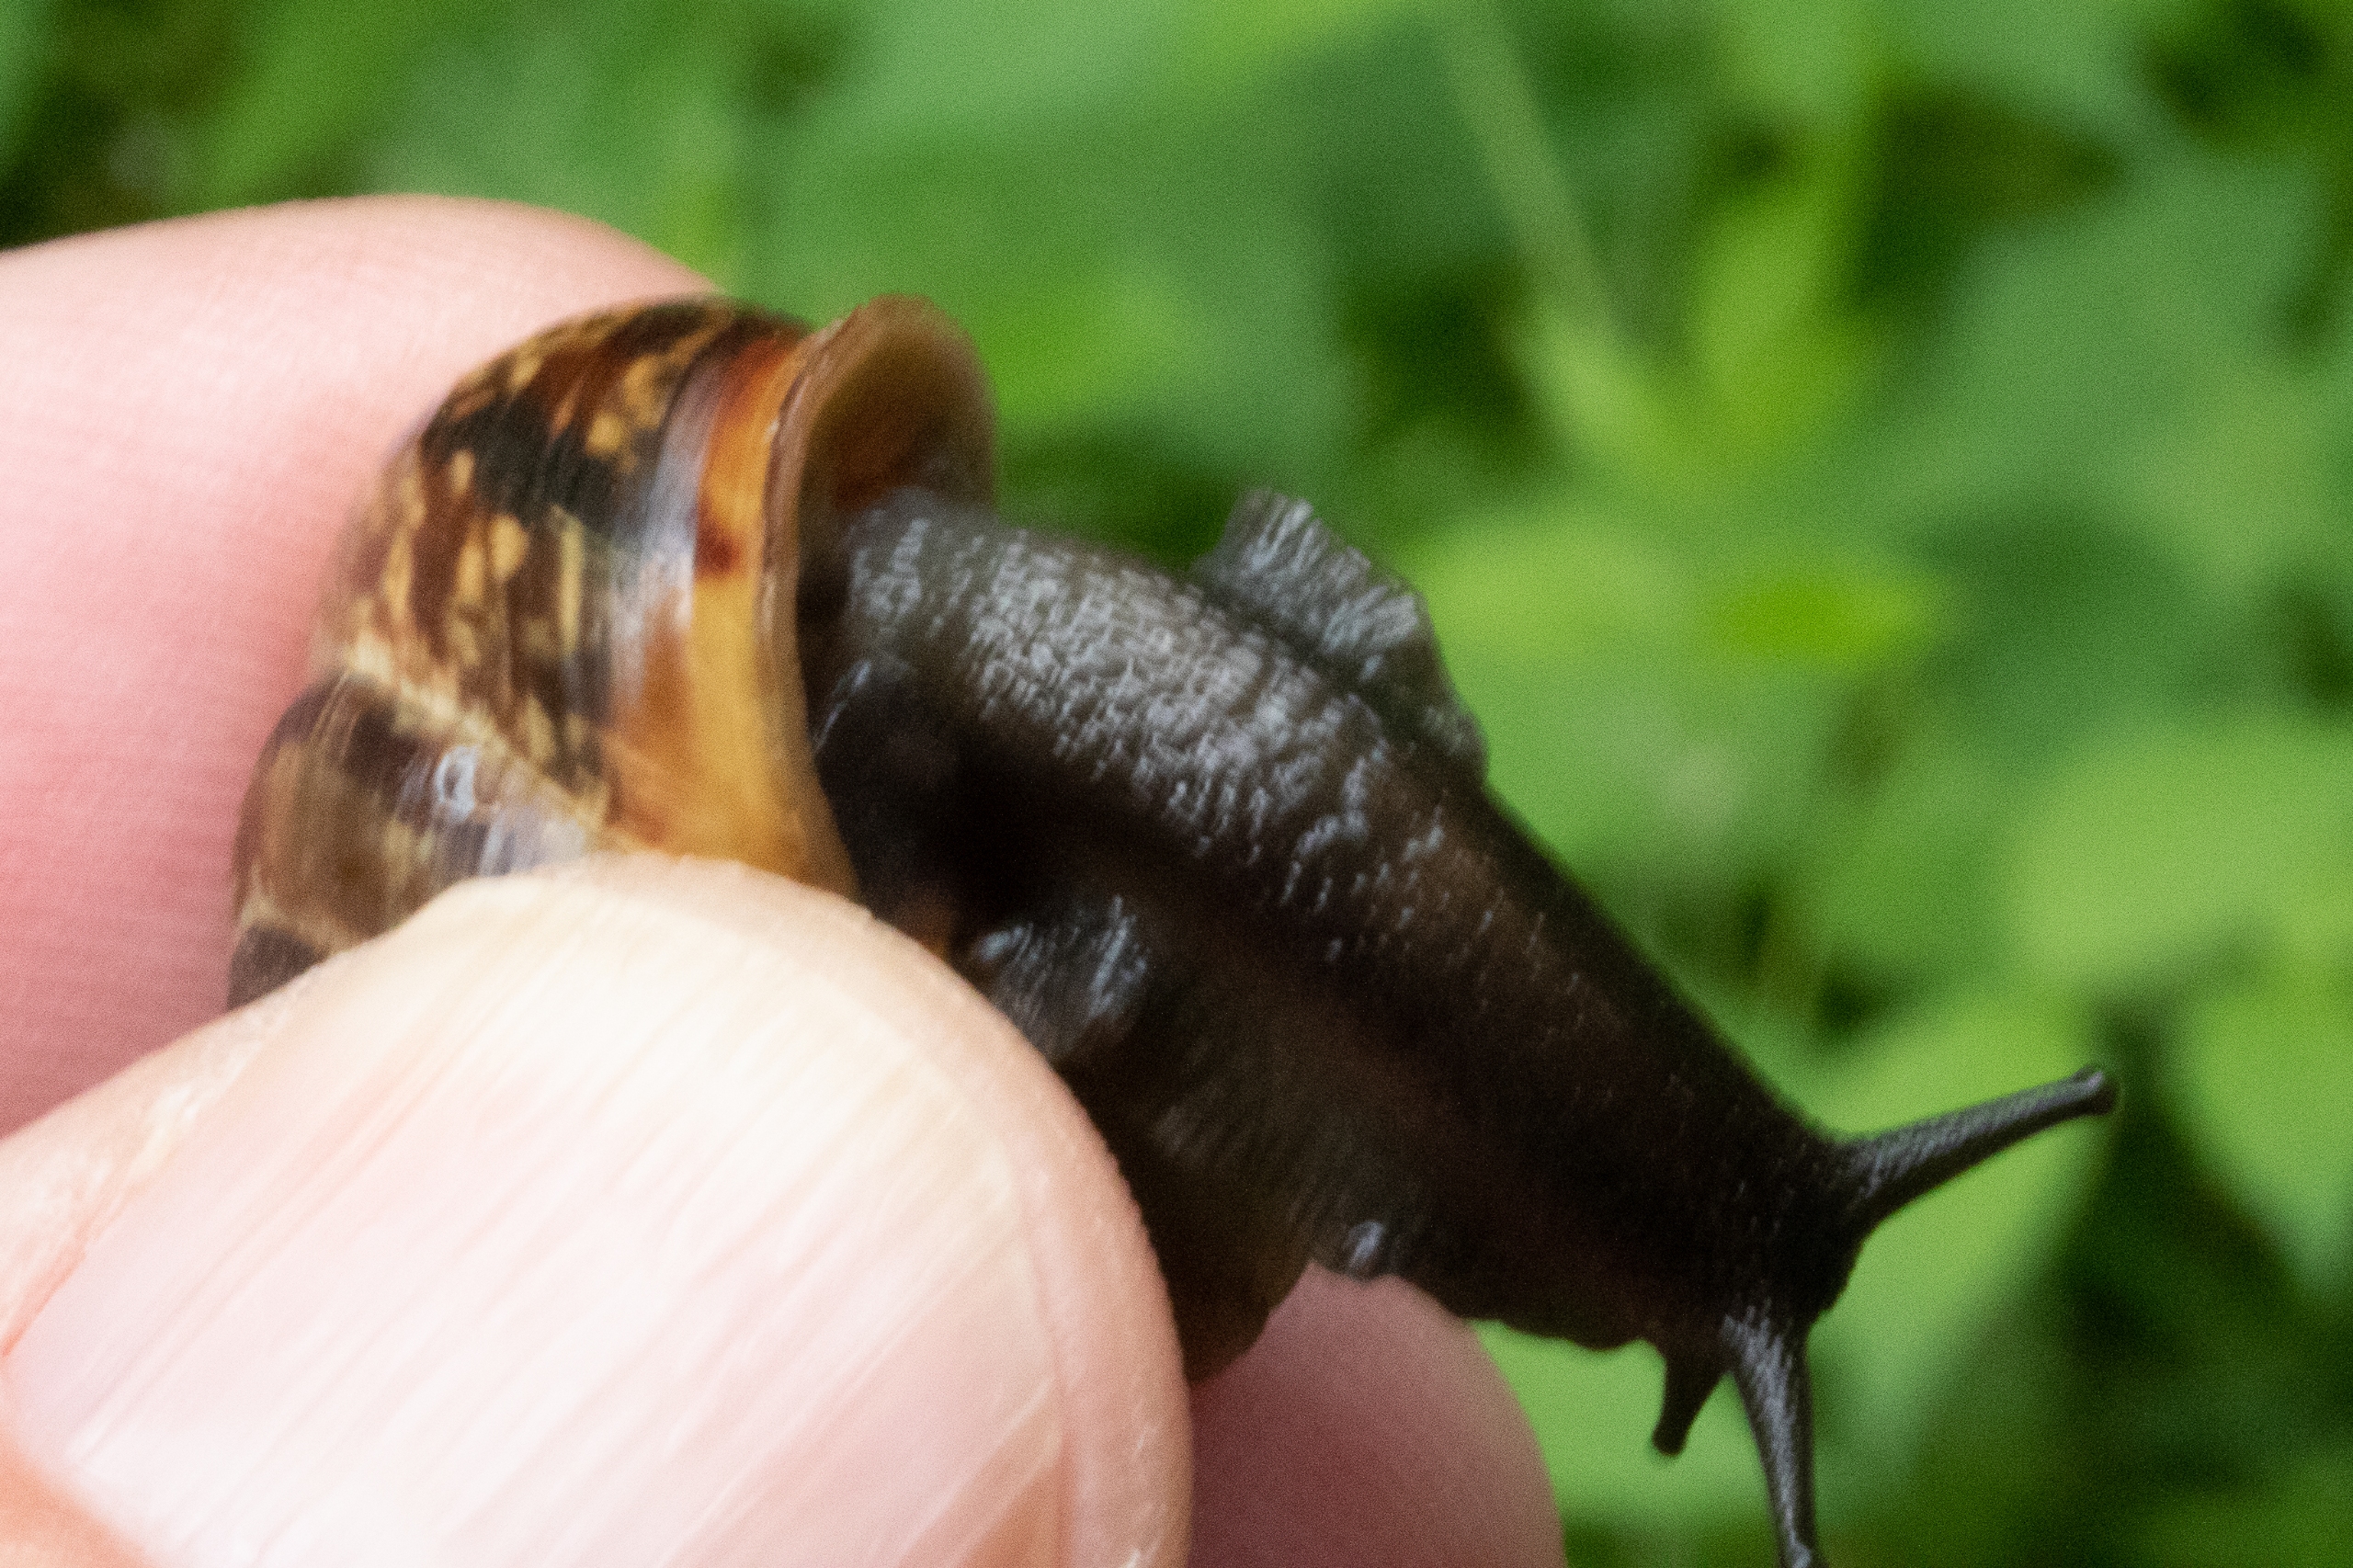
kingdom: Animalia
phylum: Mollusca
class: Gastropoda
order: Stylommatophora
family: Helicidae
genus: Arianta
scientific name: Arianta arbustorum
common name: Kratsnegl
